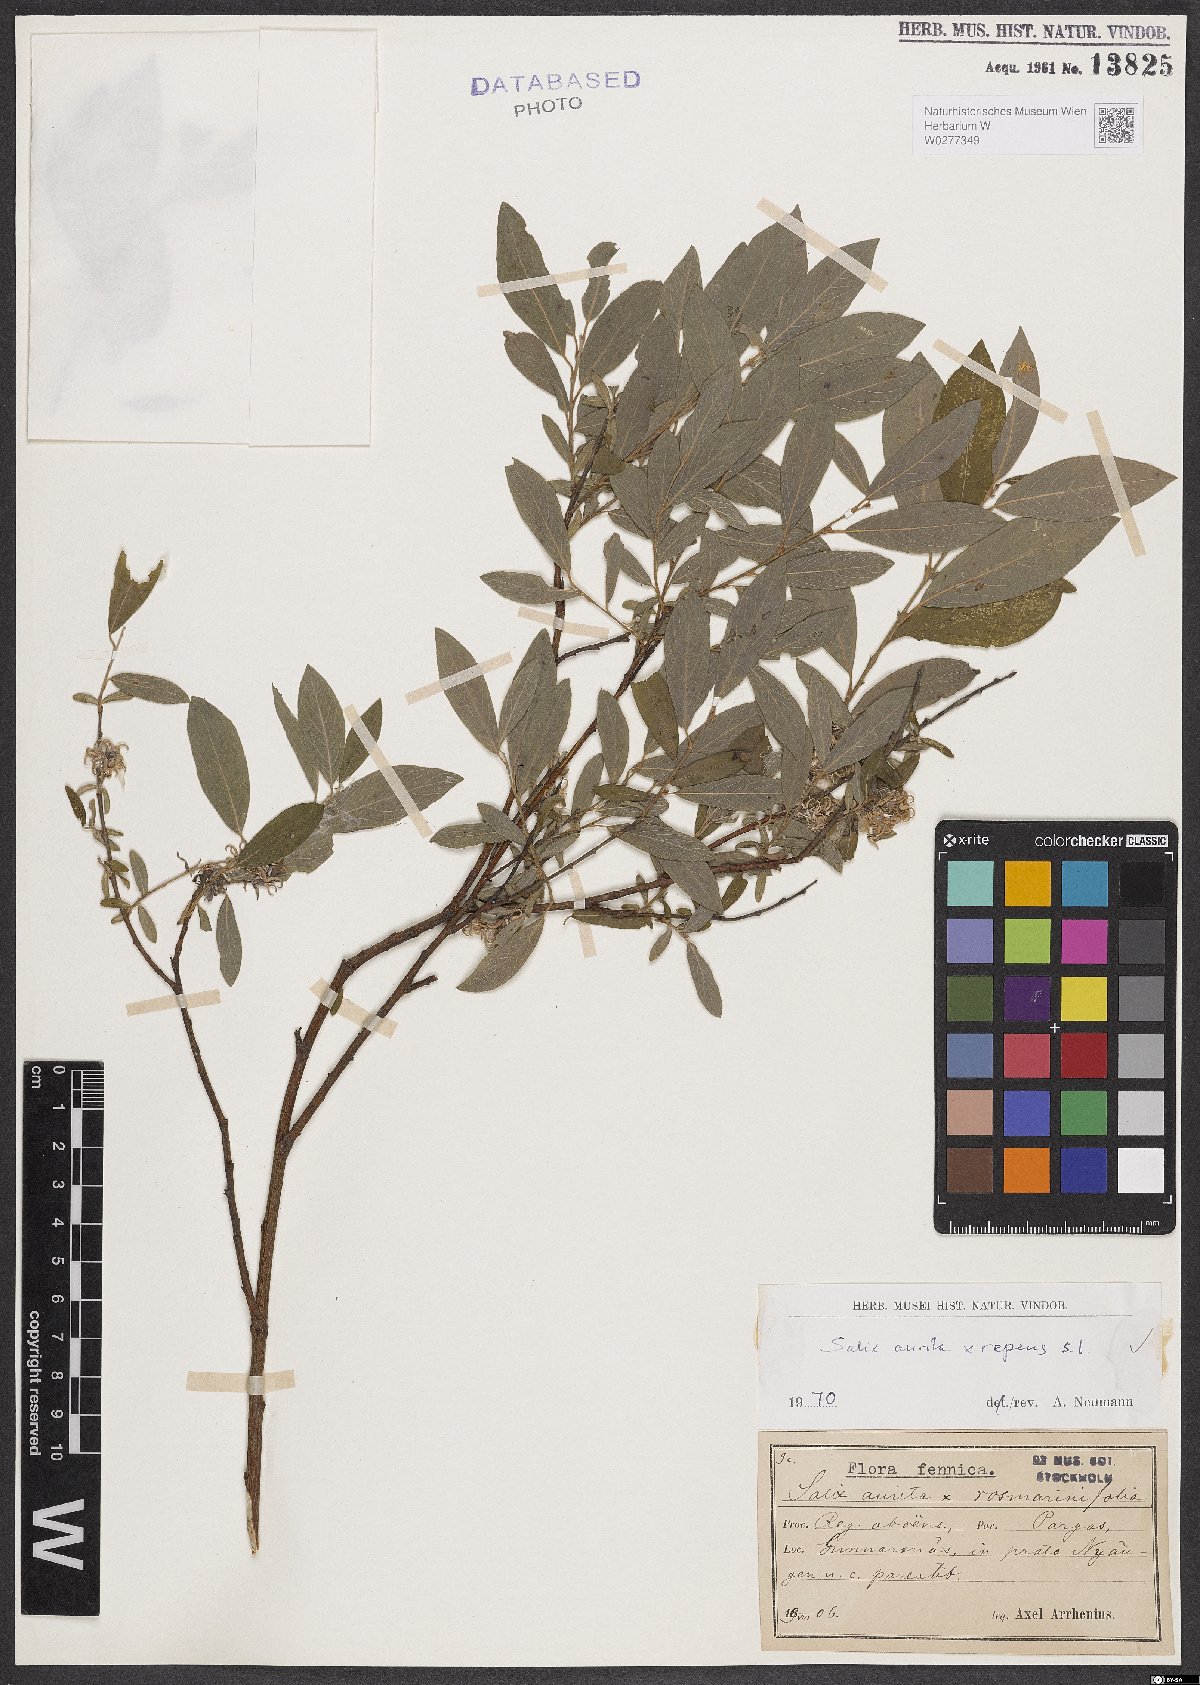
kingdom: Plantae
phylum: Tracheophyta
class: Magnoliopsida
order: Malpighiales
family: Salicaceae
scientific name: Salicaceae
